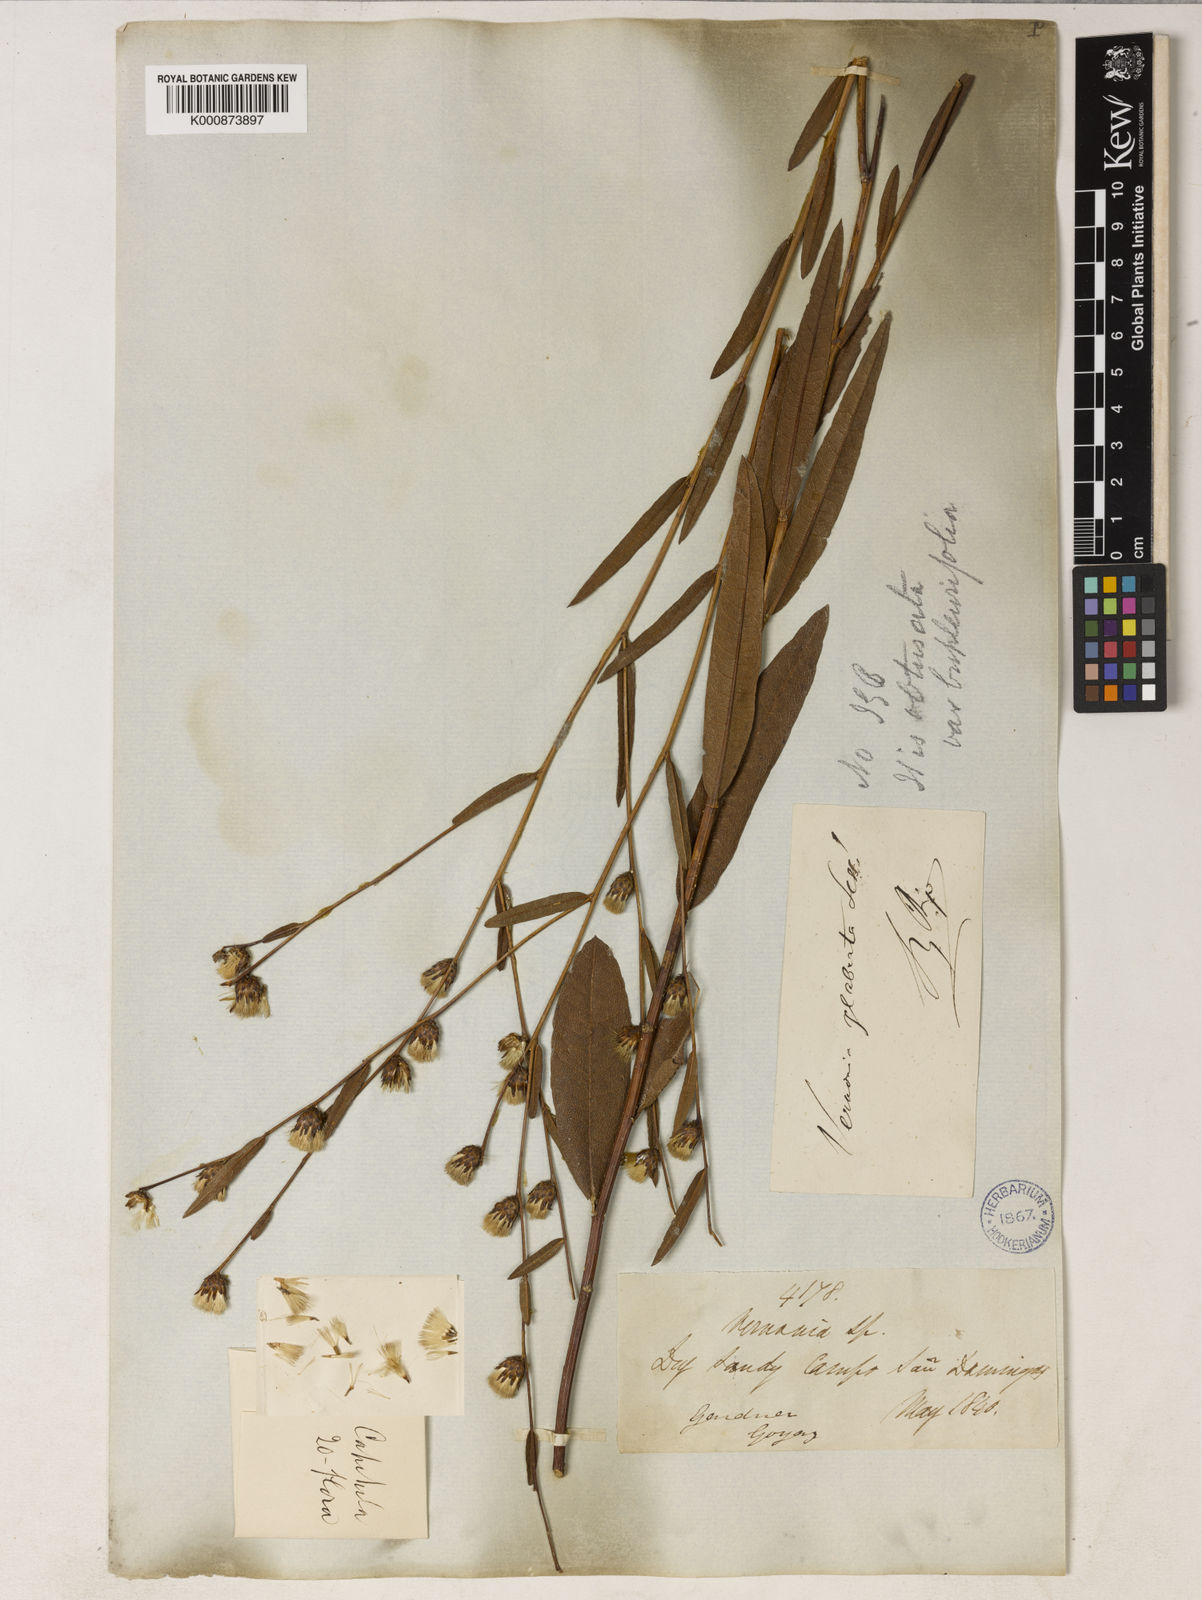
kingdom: Plantae
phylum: Tracheophyta
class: Magnoliopsida
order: Asterales
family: Asteraceae
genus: Lessingianthus
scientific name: Lessingianthus obtusatus
